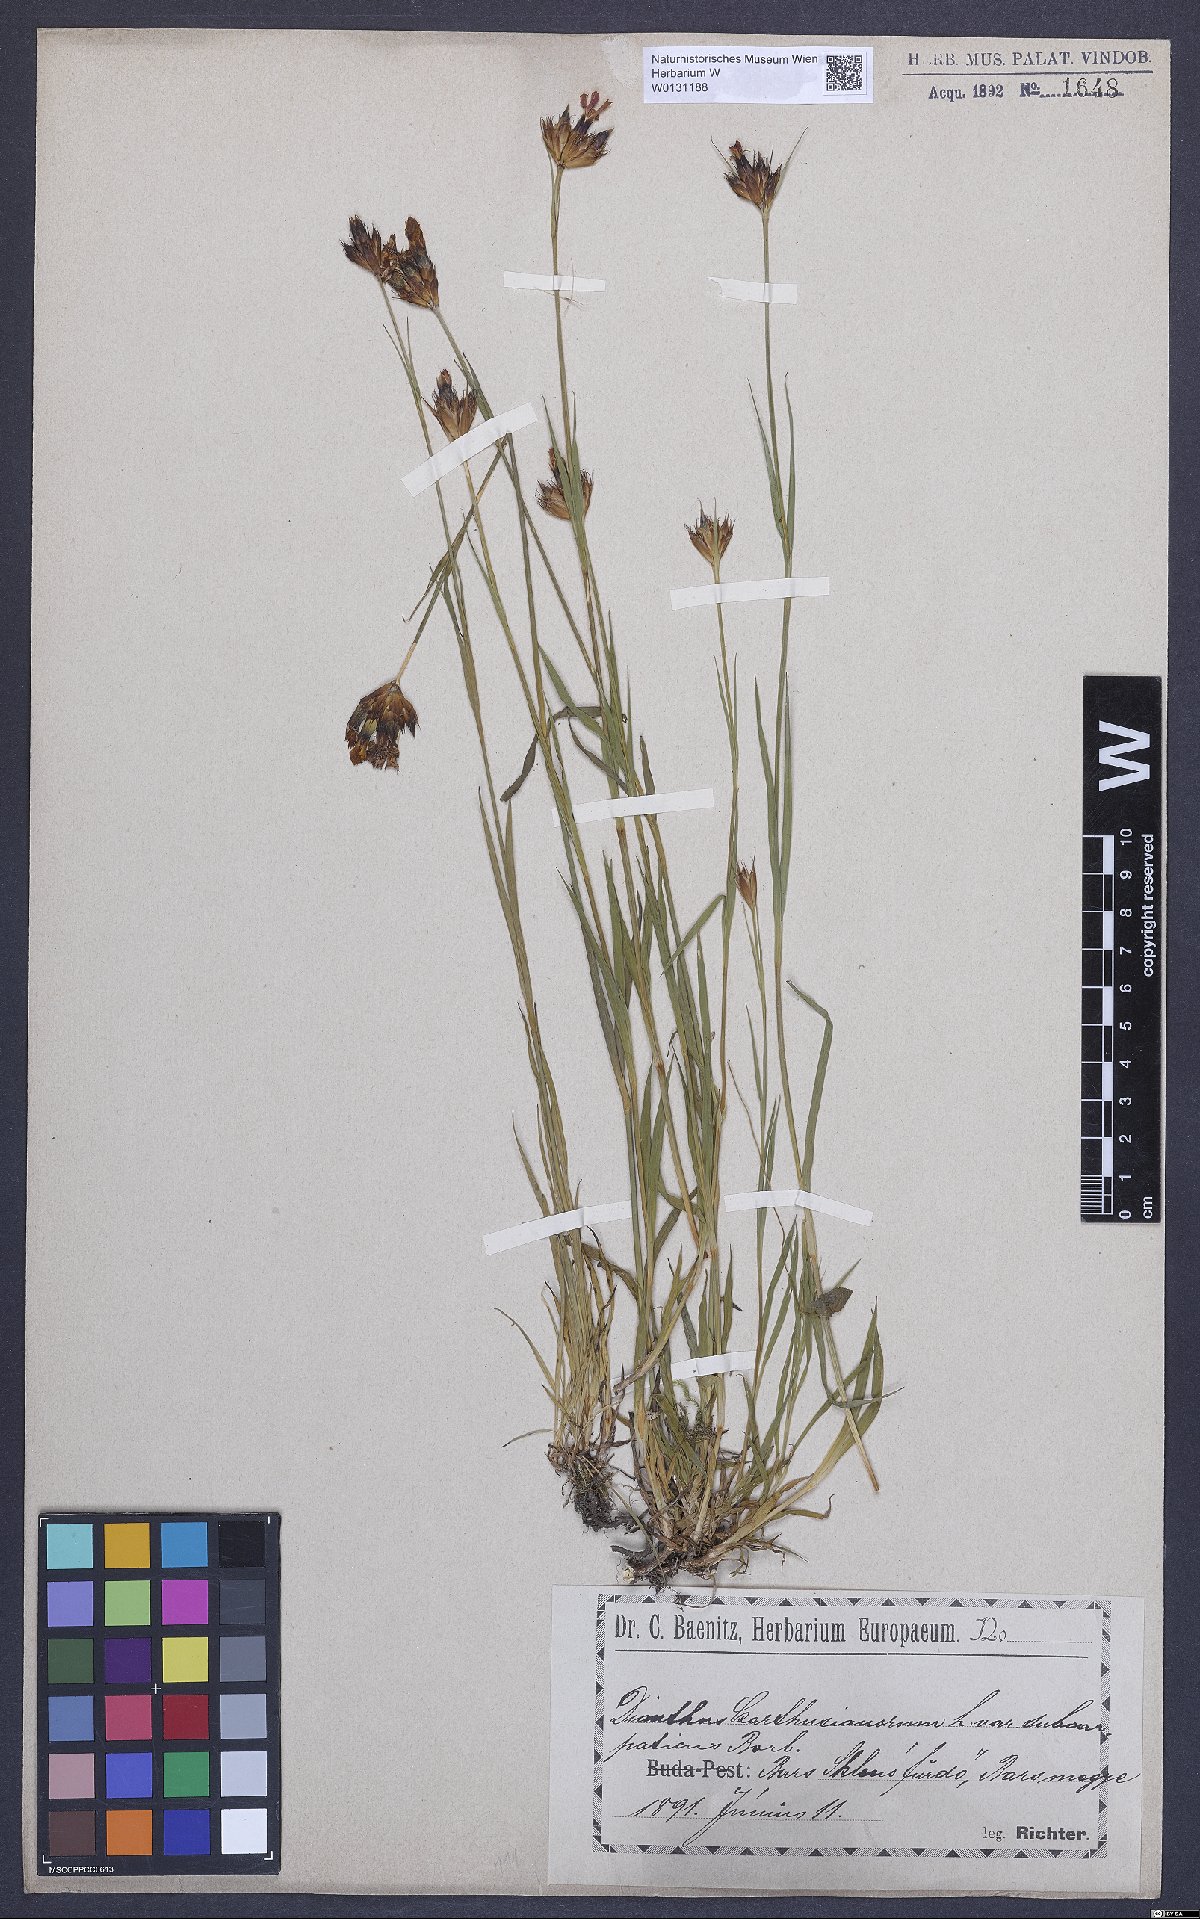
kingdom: Plantae
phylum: Tracheophyta
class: Magnoliopsida
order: Caryophyllales
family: Caryophyllaceae
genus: Dianthus
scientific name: Dianthus carthusianorum
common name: Carthusian pink
